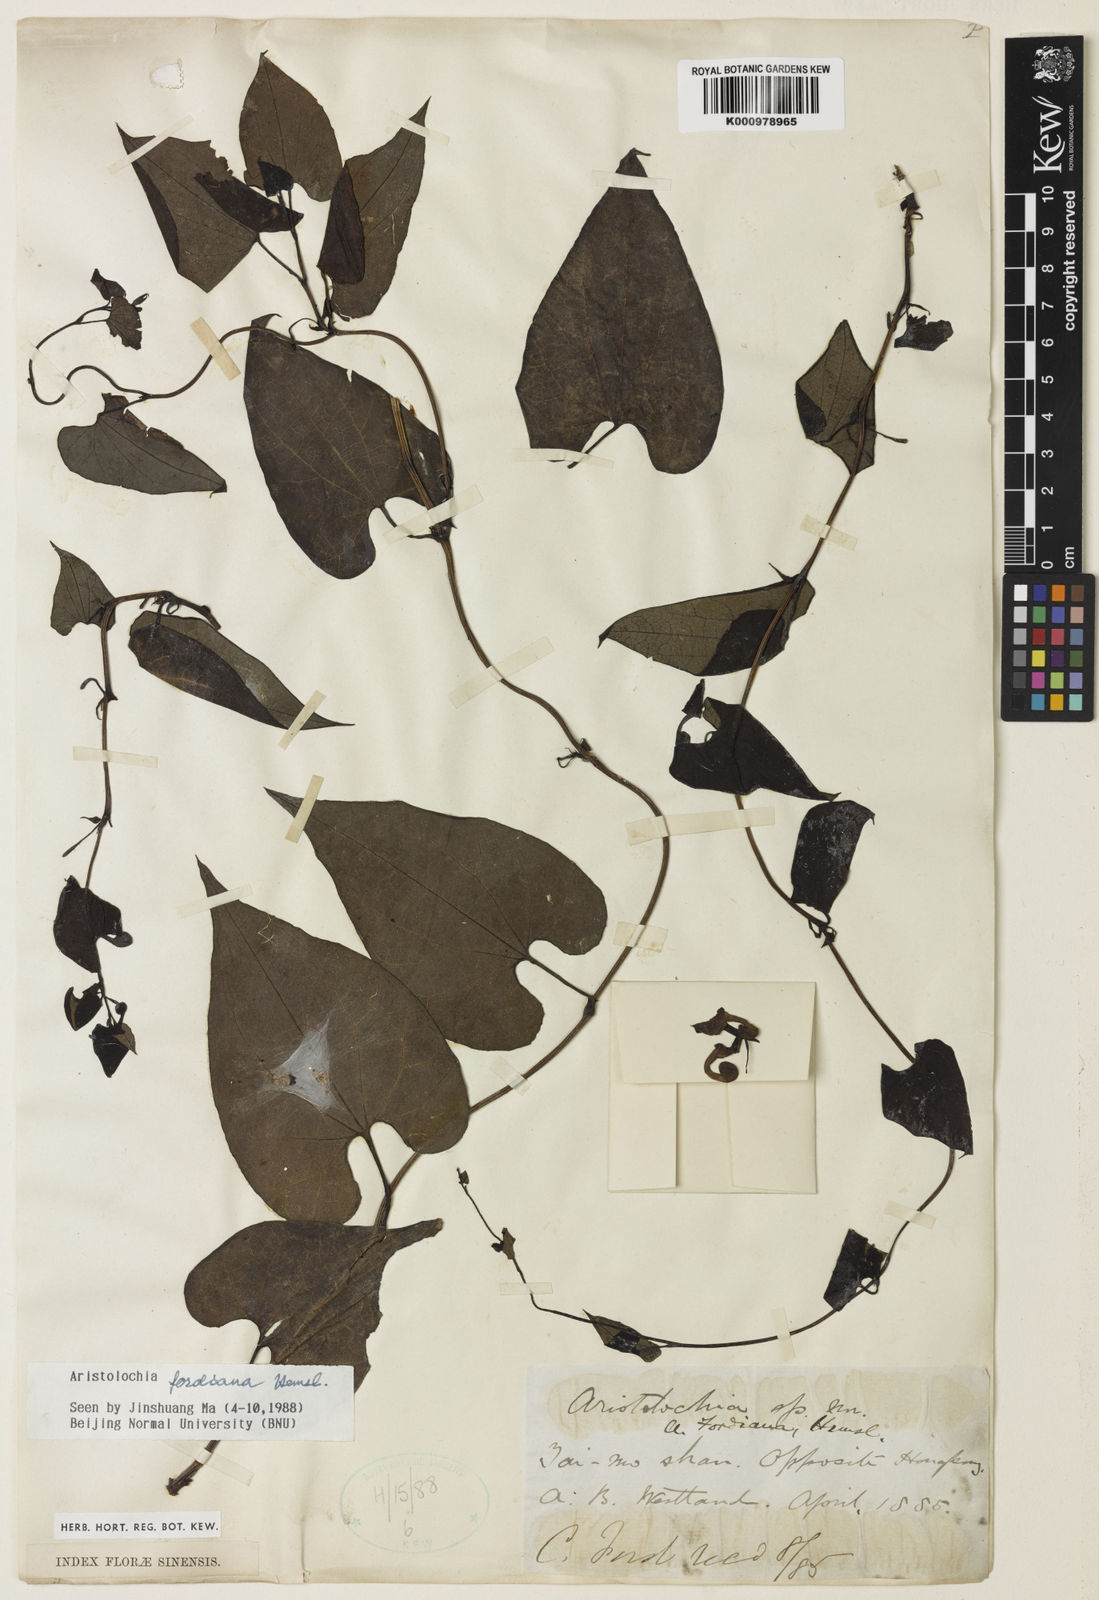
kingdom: Plantae
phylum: Tracheophyta
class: Magnoliopsida
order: Piperales
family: Aristolochiaceae
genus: Aristolochia
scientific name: Aristolochia fordiana
